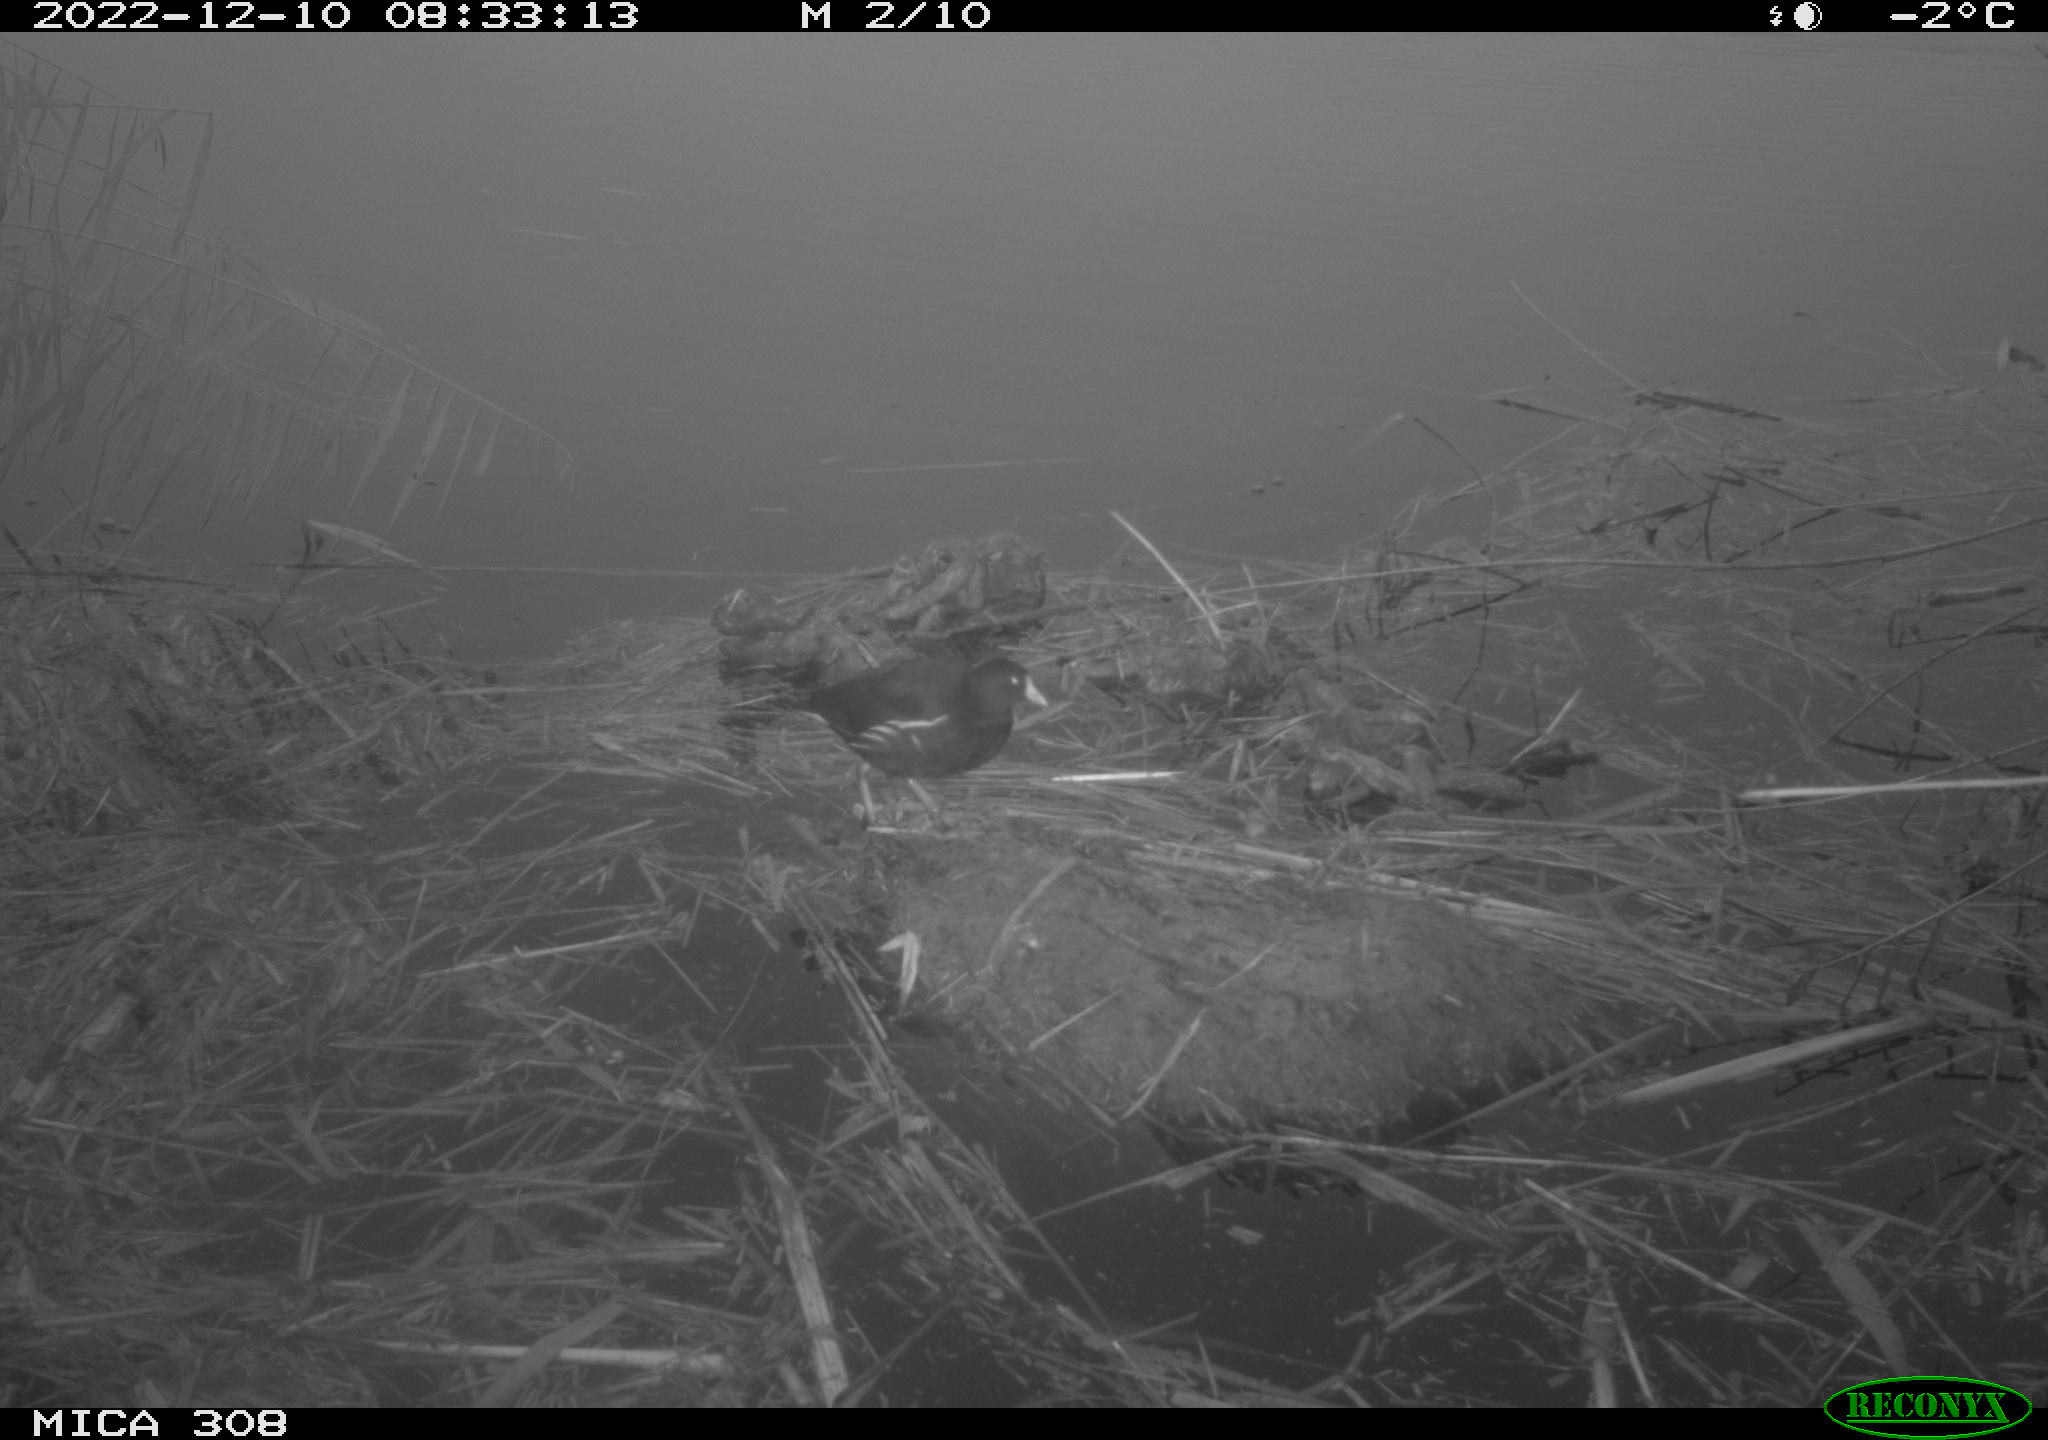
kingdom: Animalia
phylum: Chordata
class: Aves
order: Gruiformes
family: Rallidae
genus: Gallinula
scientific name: Gallinula chloropus
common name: Common moorhen
